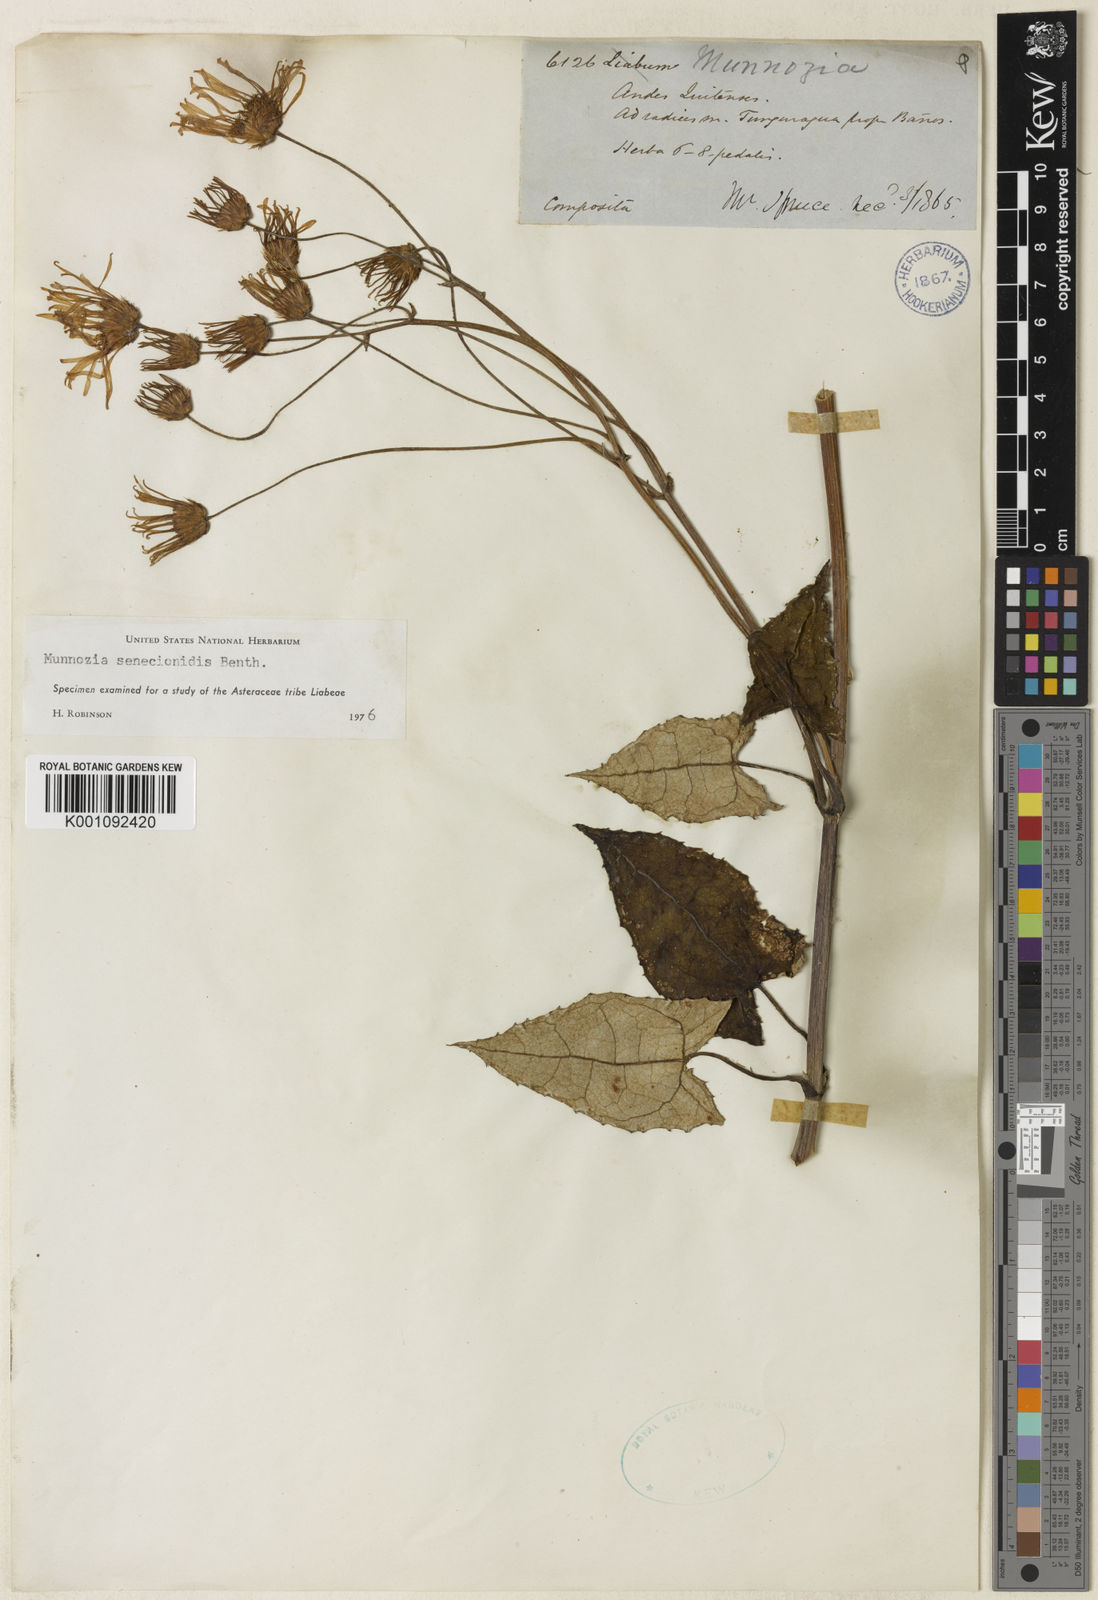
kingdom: Plantae
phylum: Tracheophyta
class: Magnoliopsida
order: Asterales
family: Asteraceae
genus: Munnozia
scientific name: Munnozia senecionidis
